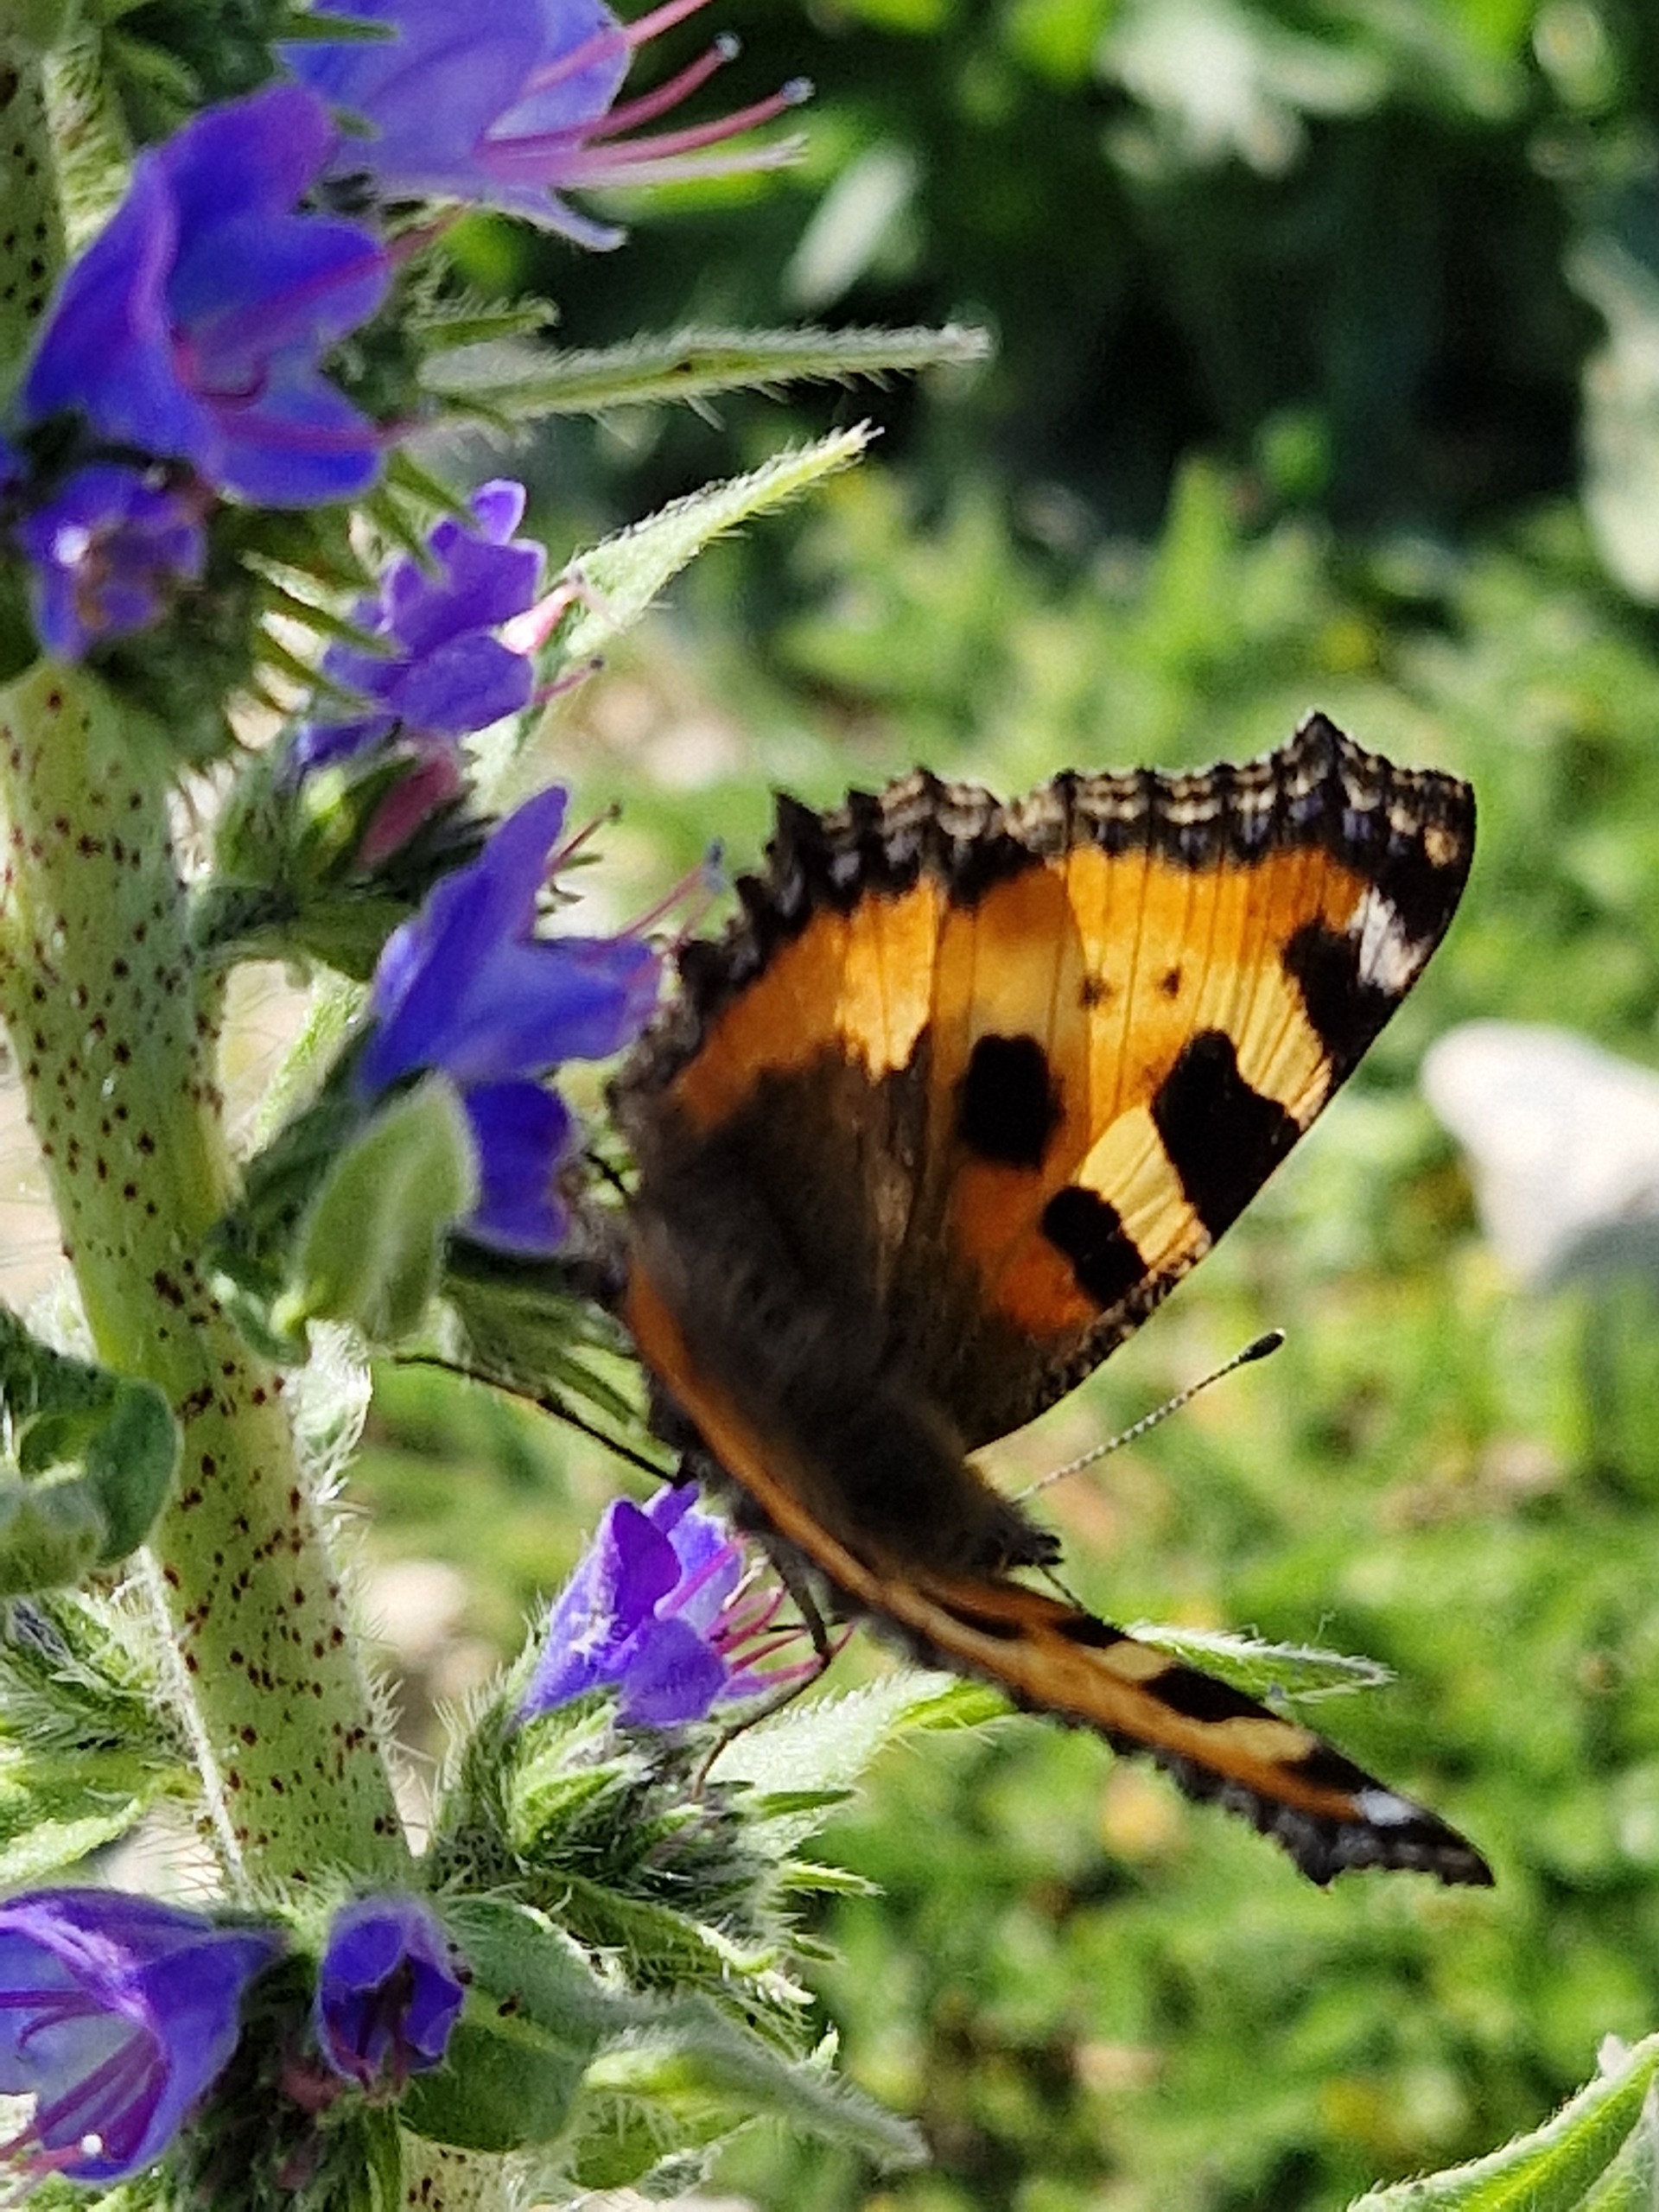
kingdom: Animalia
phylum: Arthropoda
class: Insecta
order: Lepidoptera
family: Nymphalidae
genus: Aglais
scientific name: Aglais urticae
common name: Nældens takvinge
